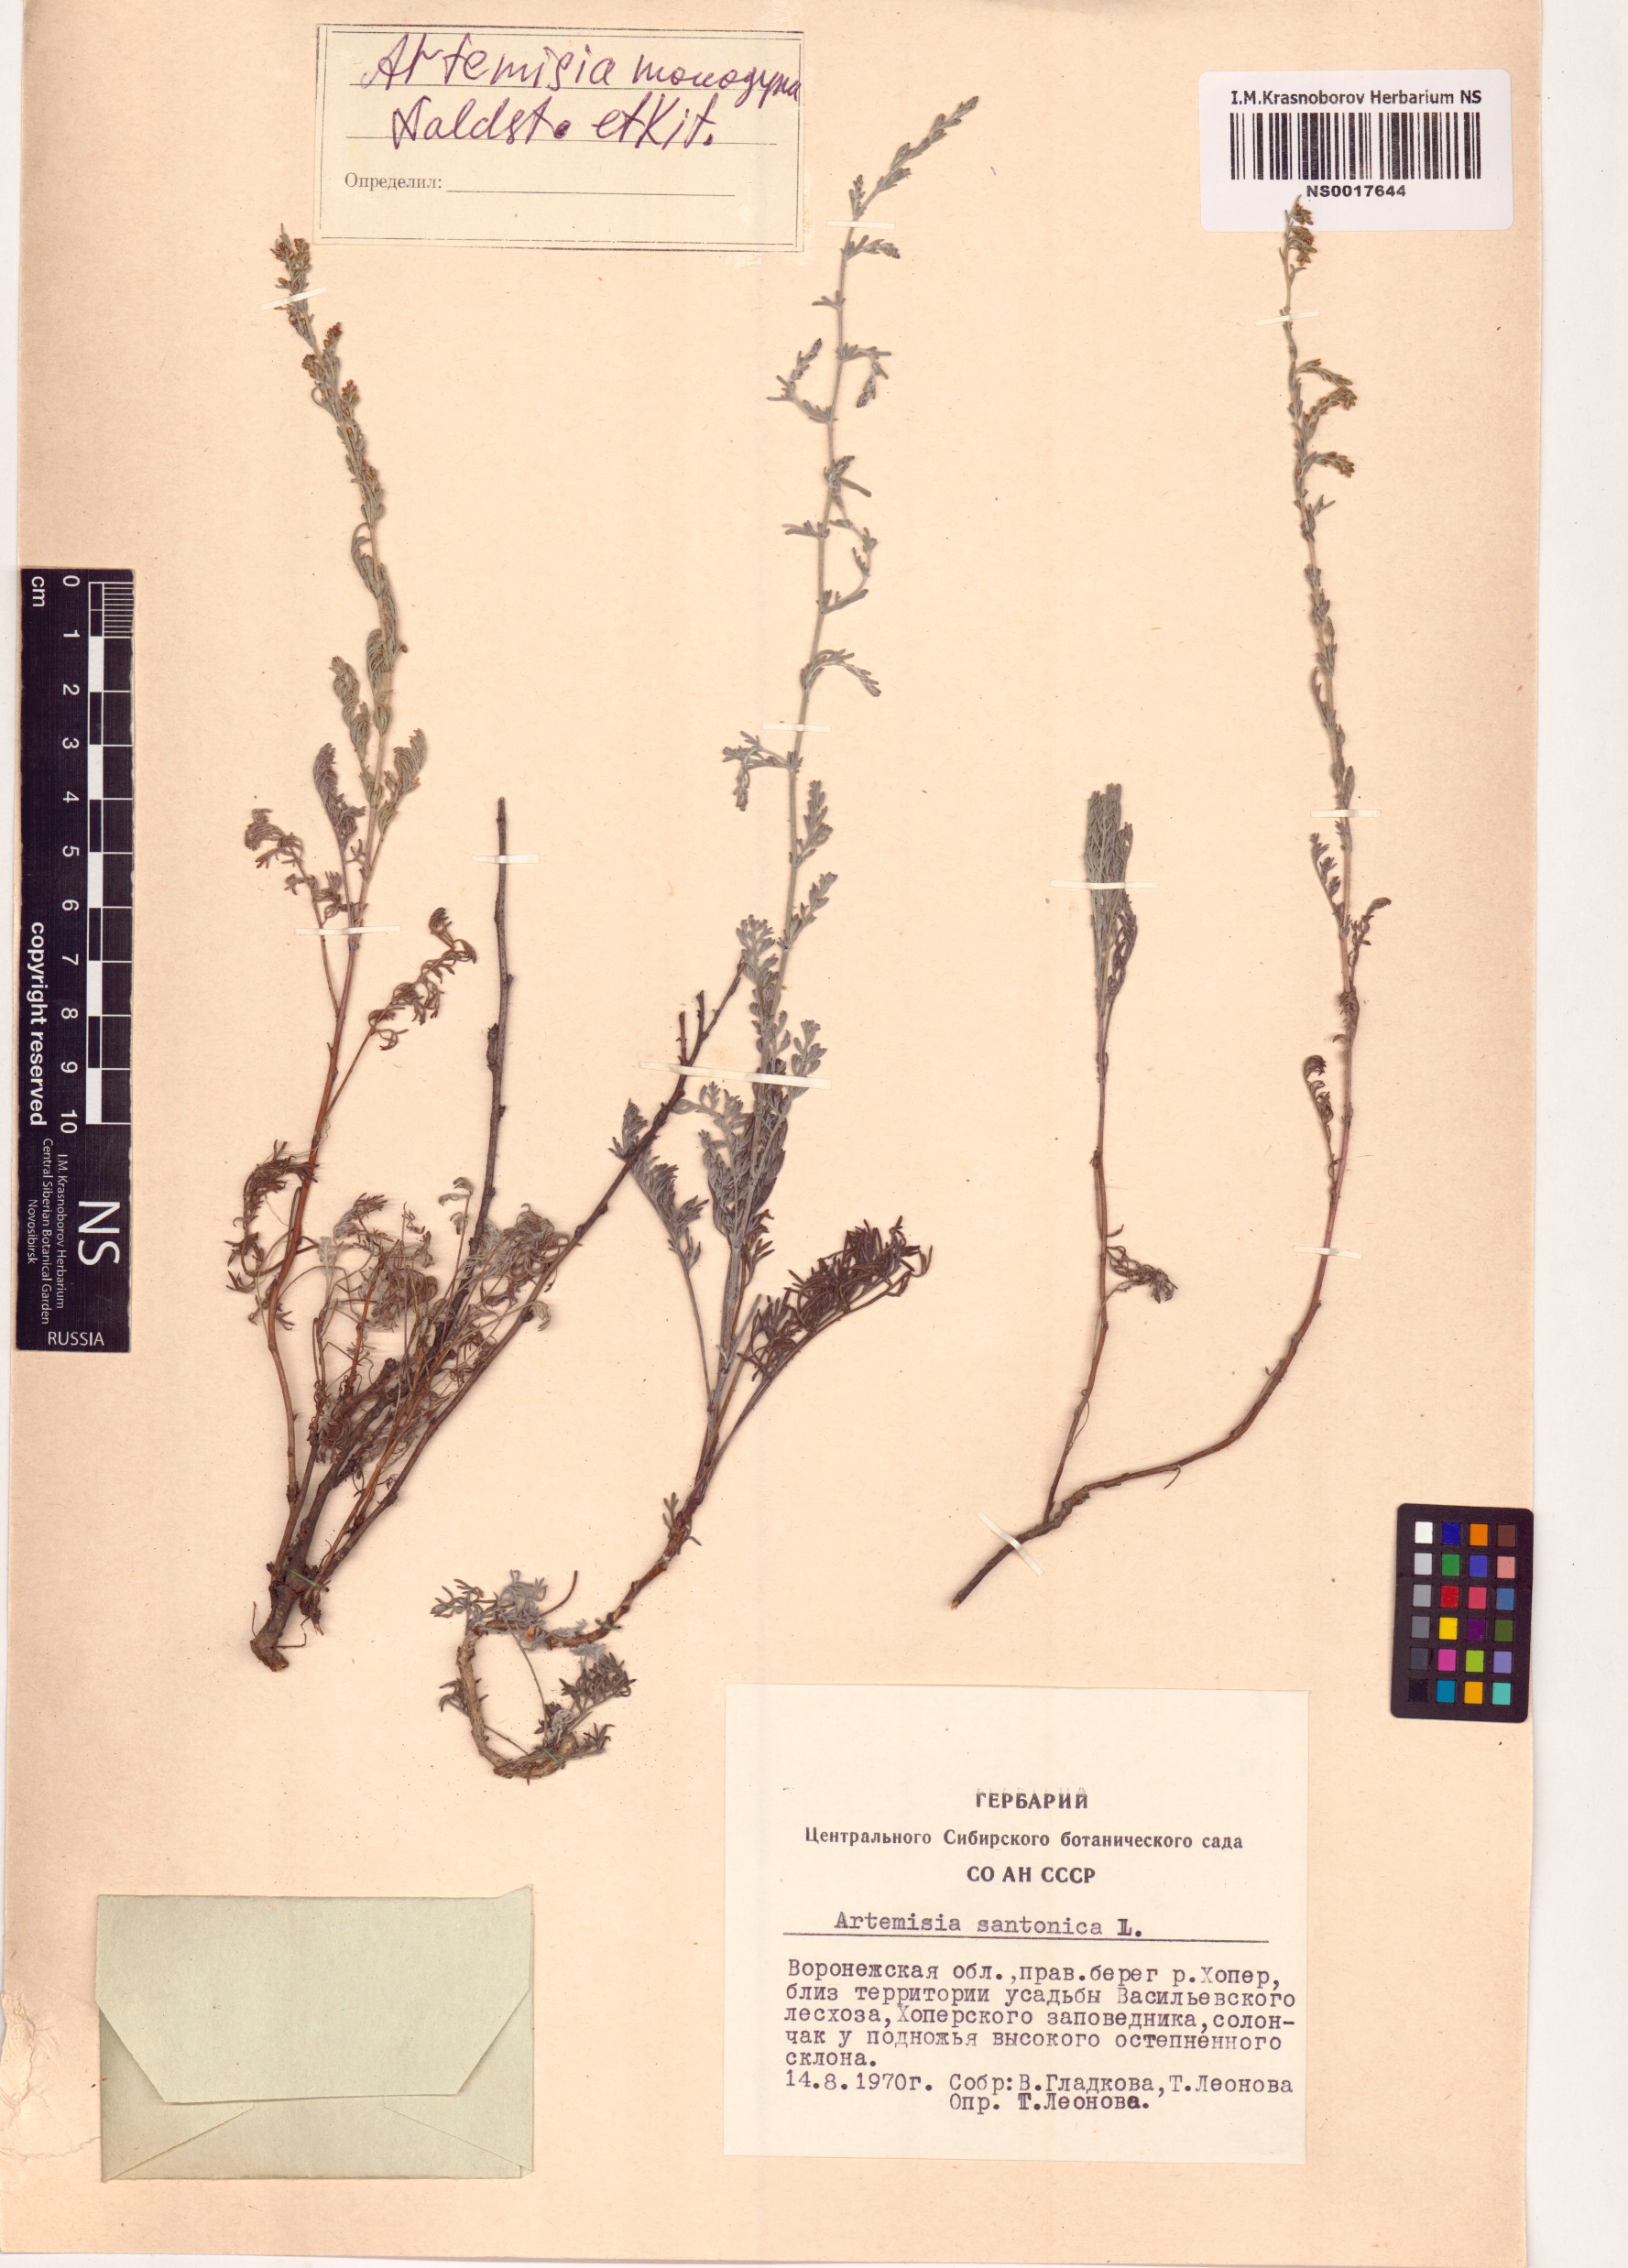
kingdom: Plantae
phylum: Tracheophyta
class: Magnoliopsida
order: Asterales
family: Asteraceae
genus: Artemisia
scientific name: Artemisia santonicum
